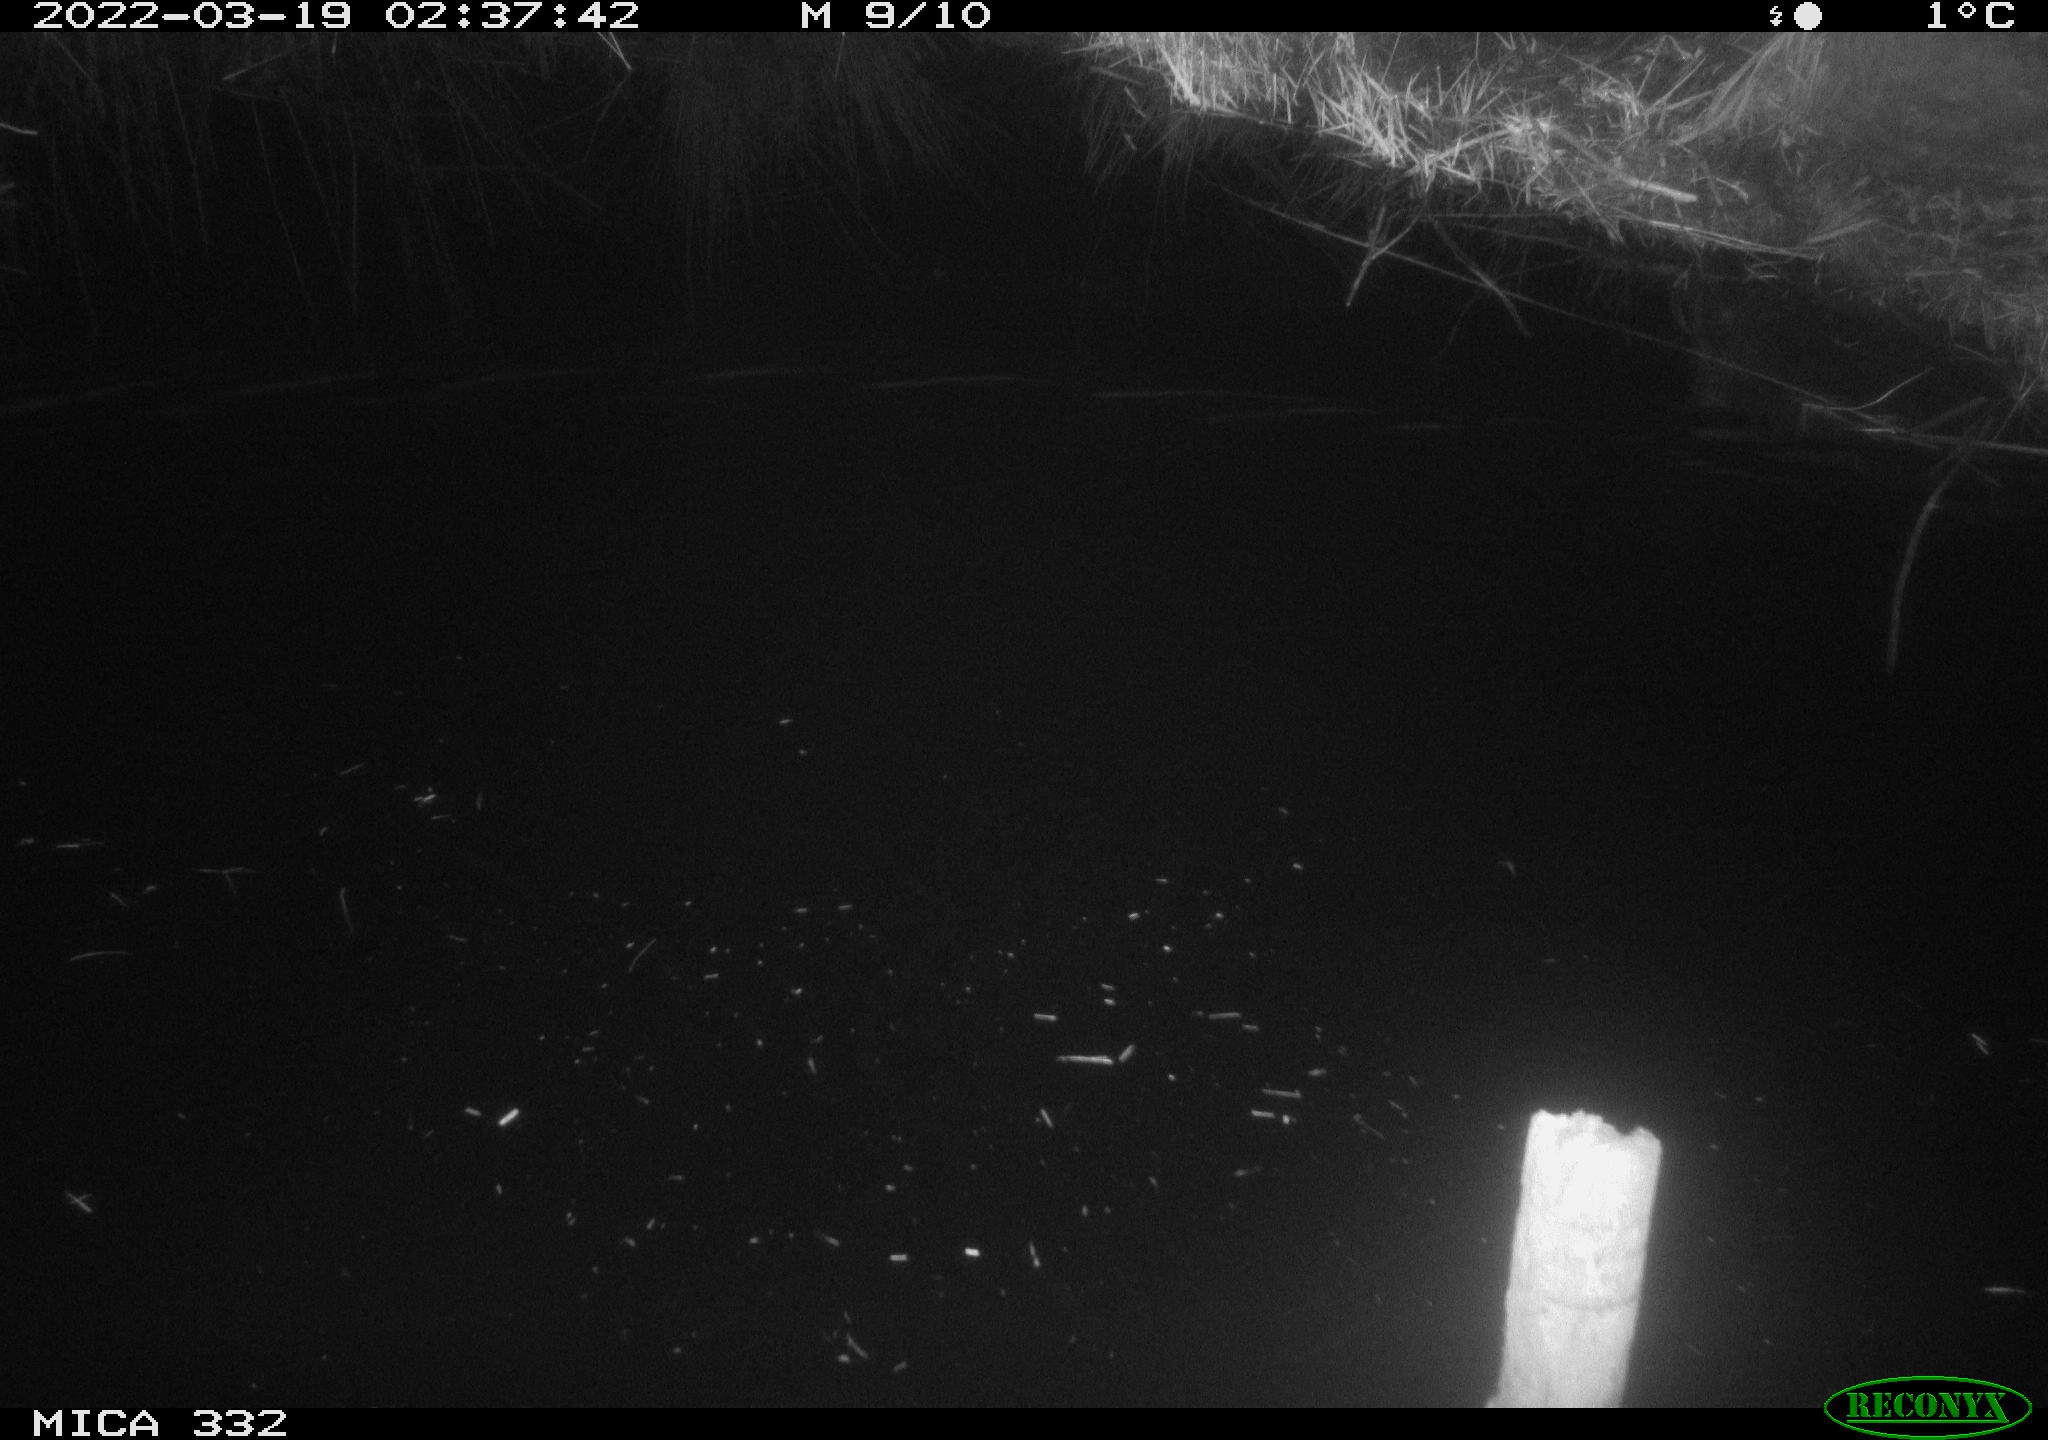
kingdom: Animalia
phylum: Chordata
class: Aves
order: Anseriformes
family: Anatidae
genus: Anas
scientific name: Anas platyrhynchos
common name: Mallard
